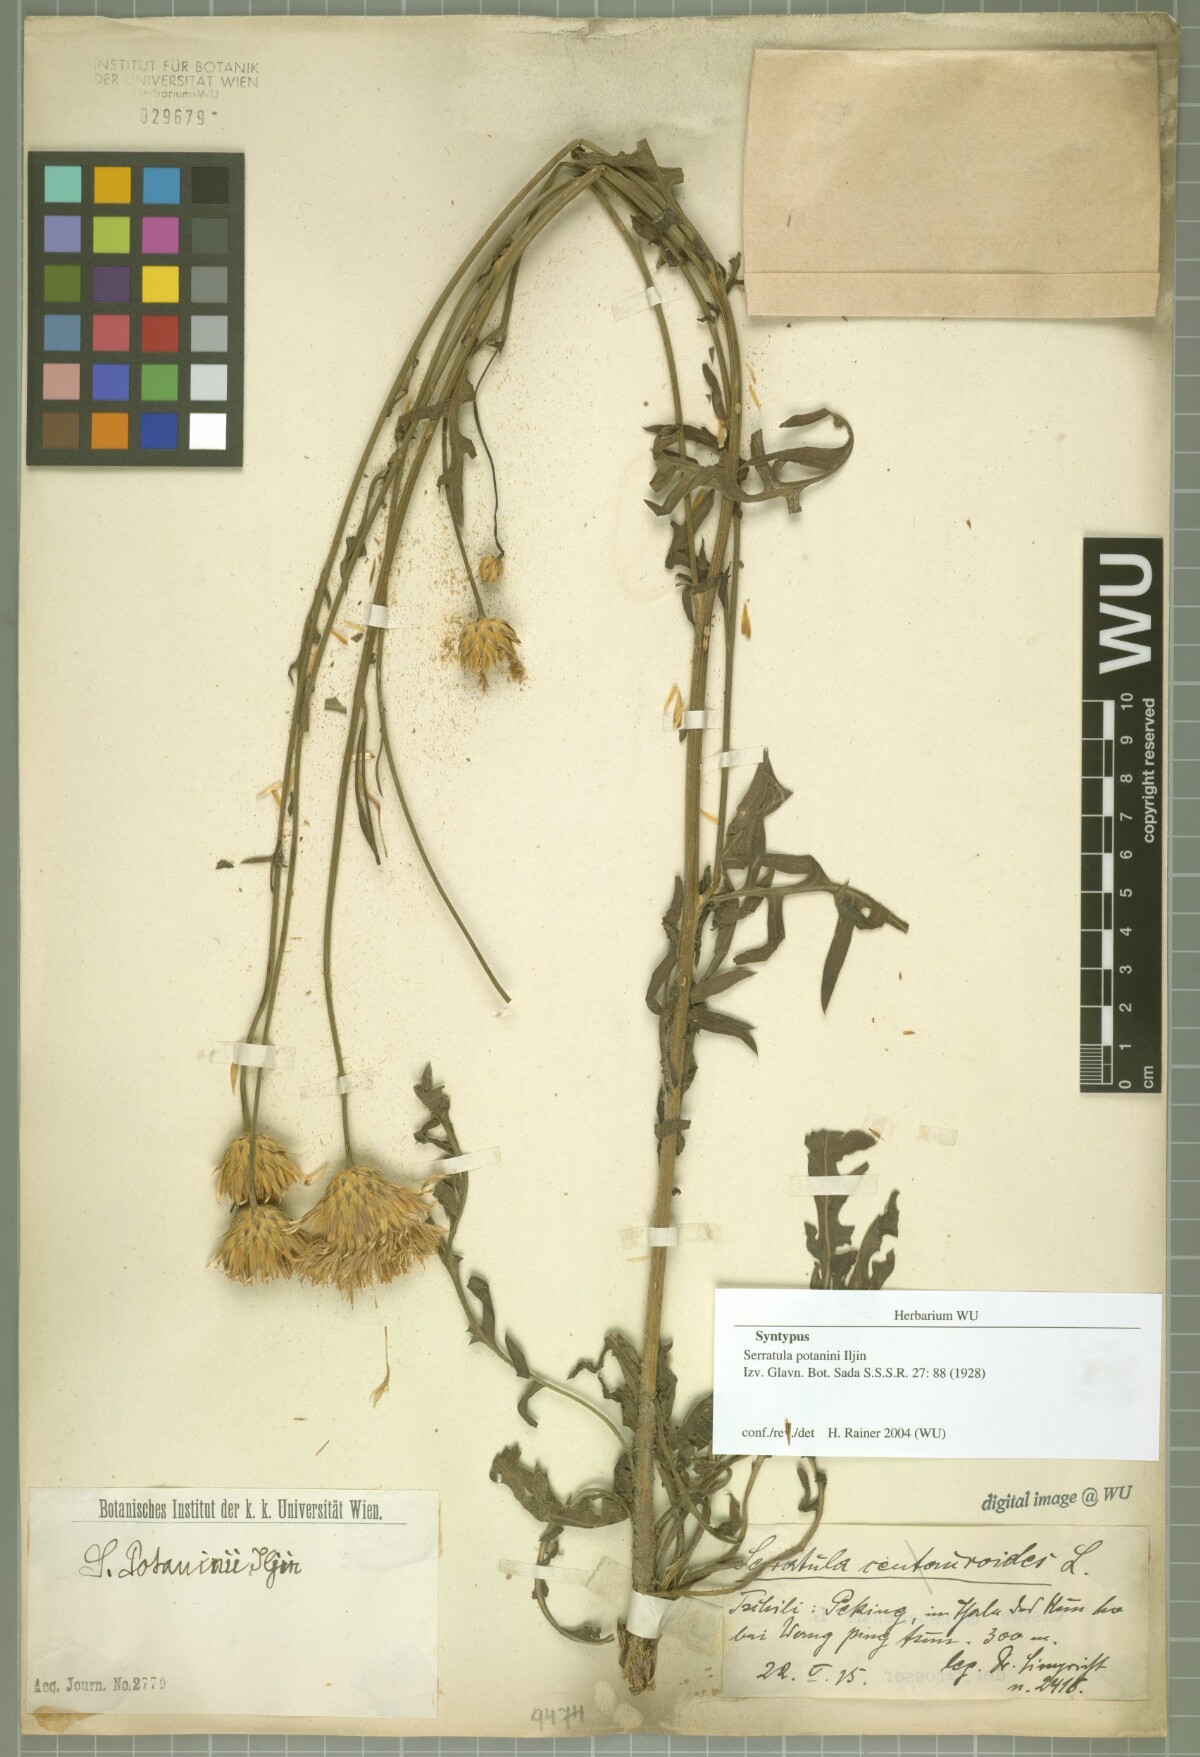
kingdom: Plantae
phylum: Tracheophyta
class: Magnoliopsida
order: Asterales
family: Asteraceae
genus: Klasea
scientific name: Klasea centauroides
